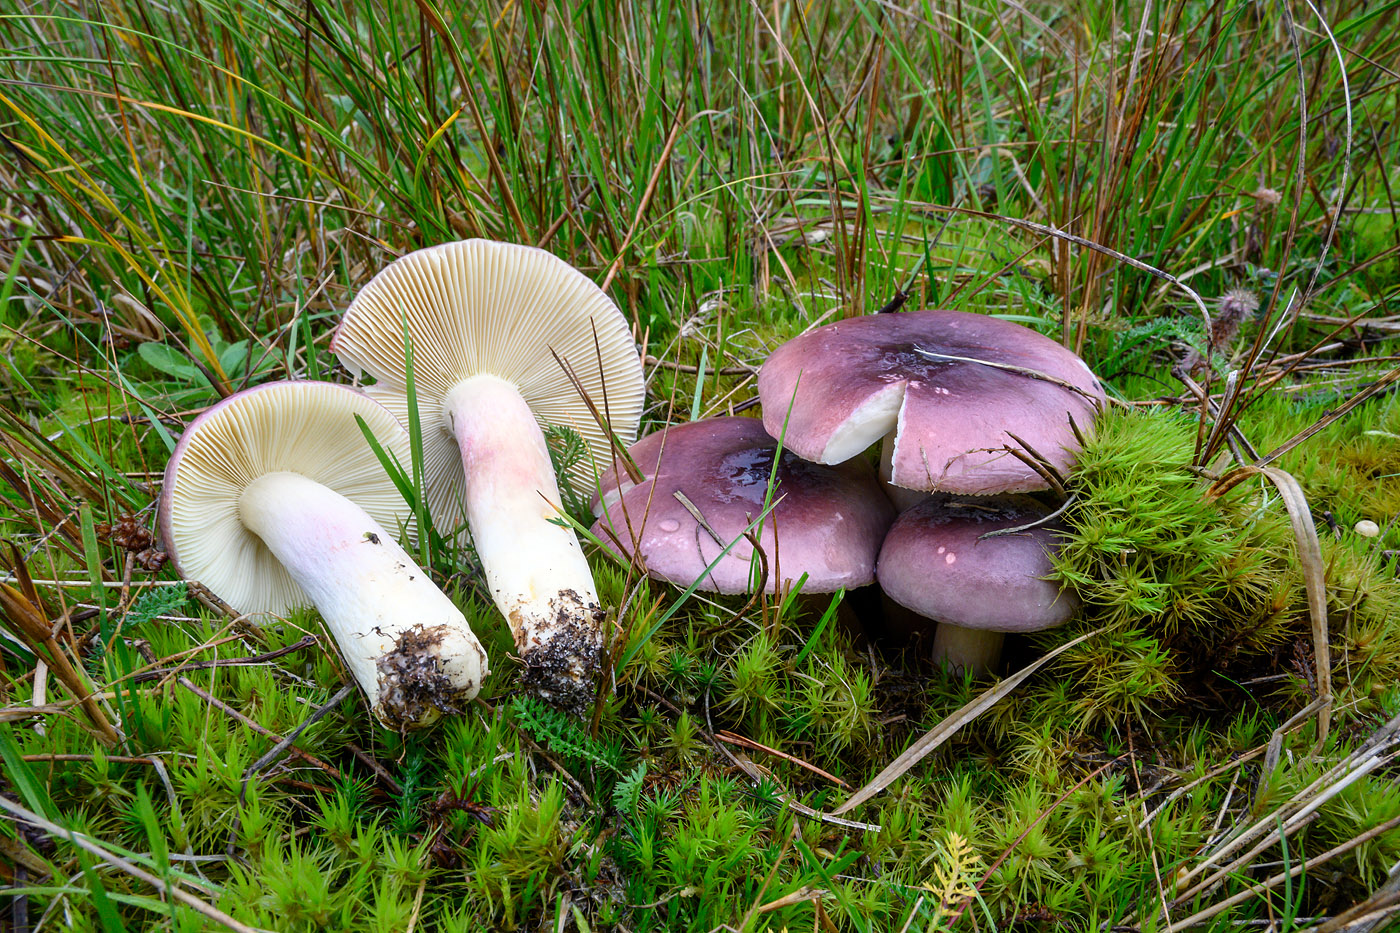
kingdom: Fungi
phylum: Basidiomycota
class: Agaricomycetes
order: Russulales
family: Russulaceae
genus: Russula
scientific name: Russula sardonia
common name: citronbladet skørhat
